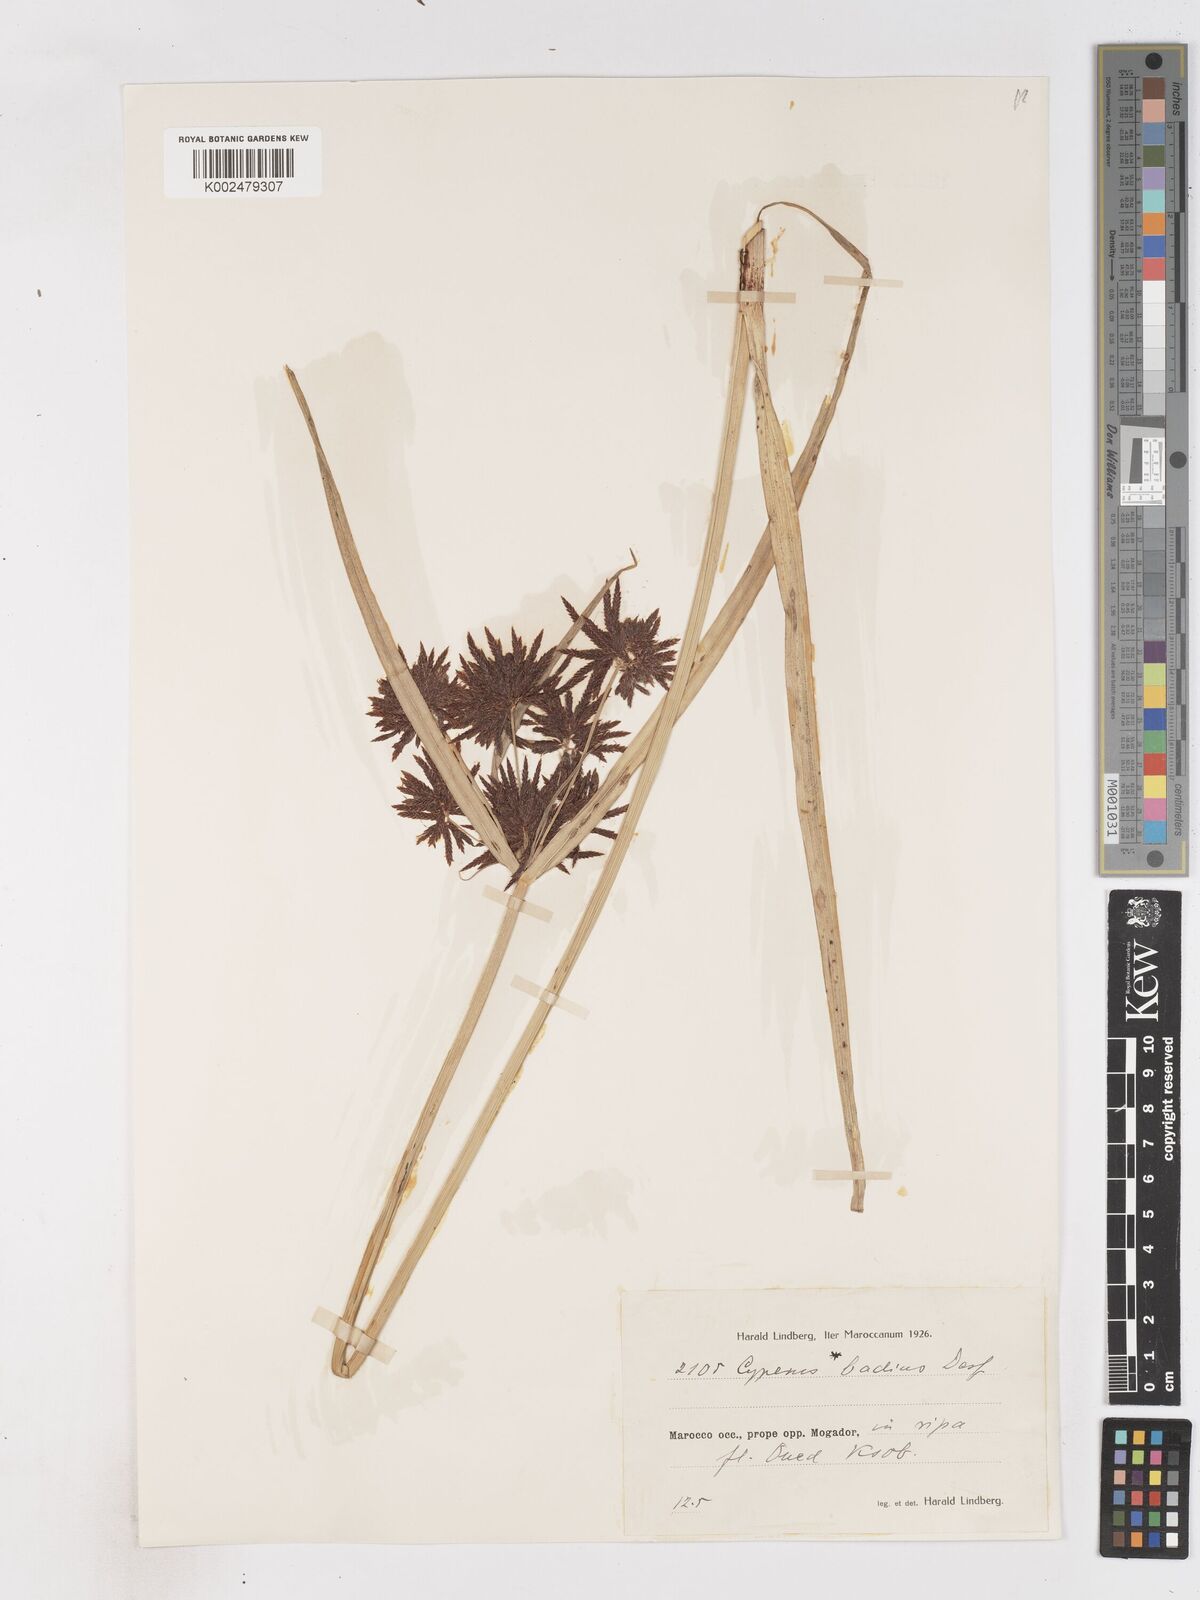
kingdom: Plantae
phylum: Tracheophyta
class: Liliopsida
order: Poales
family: Cyperaceae
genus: Cyperus
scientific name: Cyperus longus
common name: Galingale
